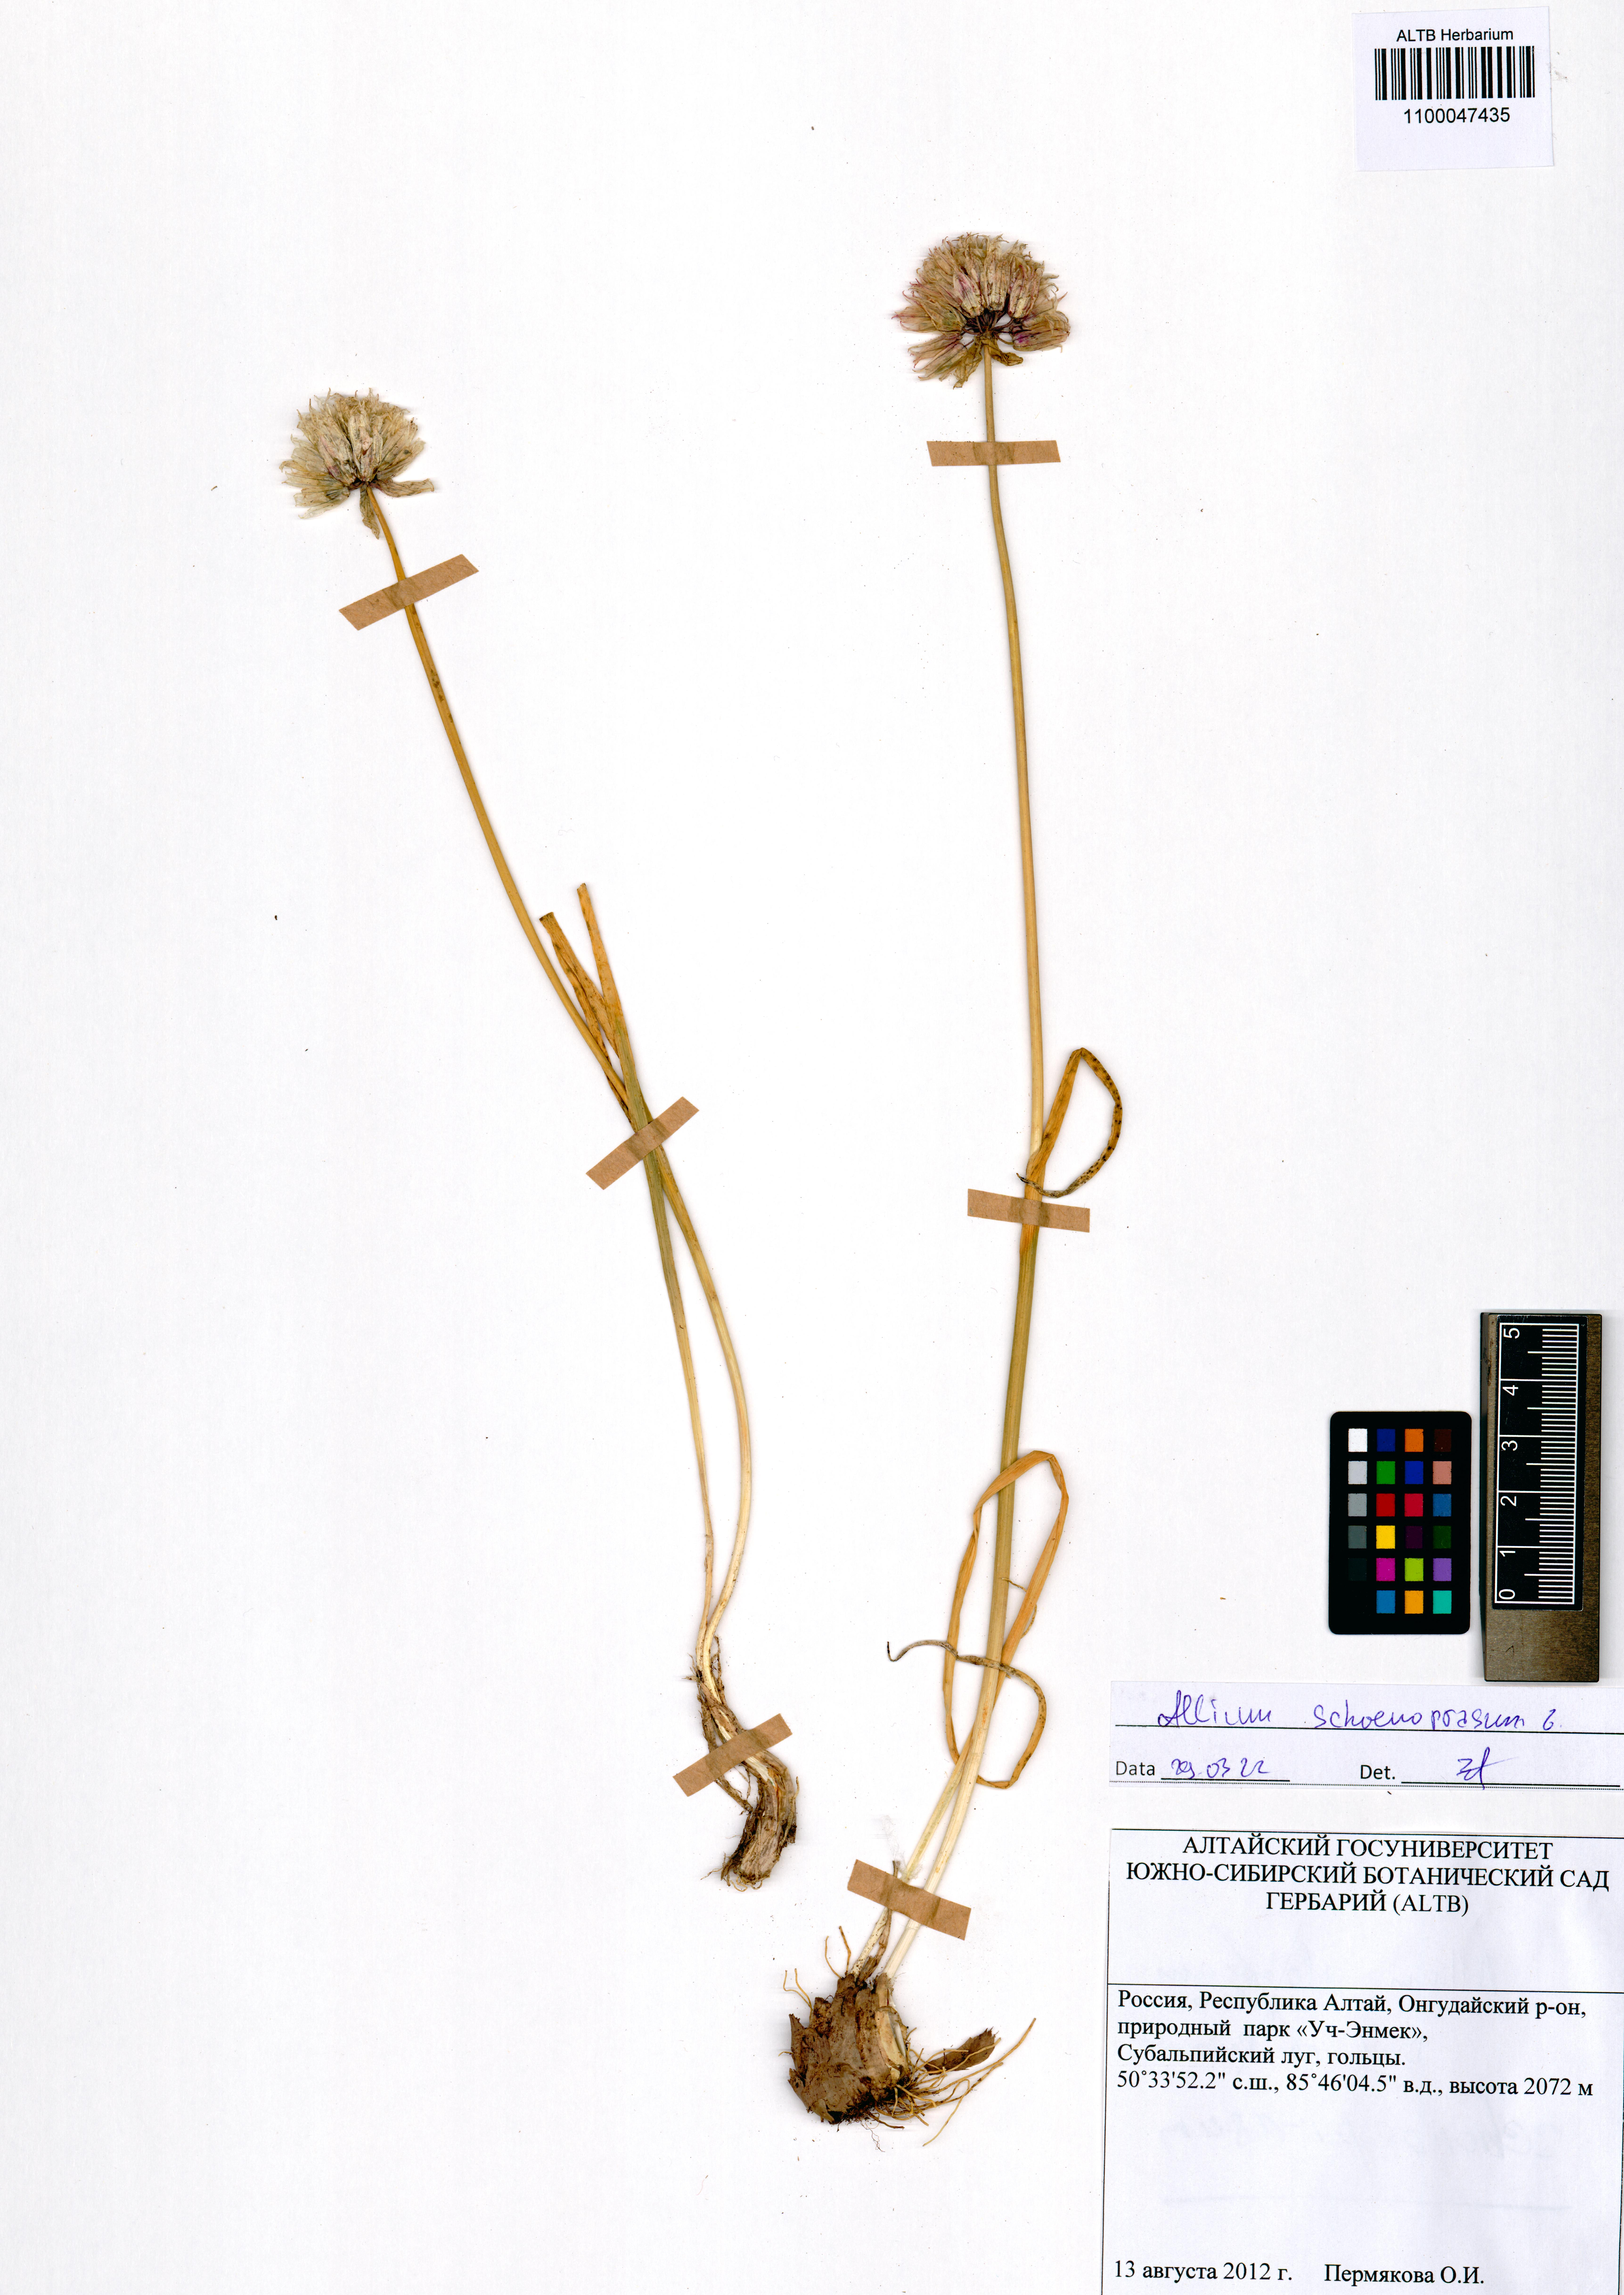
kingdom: Plantae
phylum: Tracheophyta
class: Liliopsida
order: Asparagales
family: Amaryllidaceae
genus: Allium
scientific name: Allium schoenoprasum
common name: Chives
